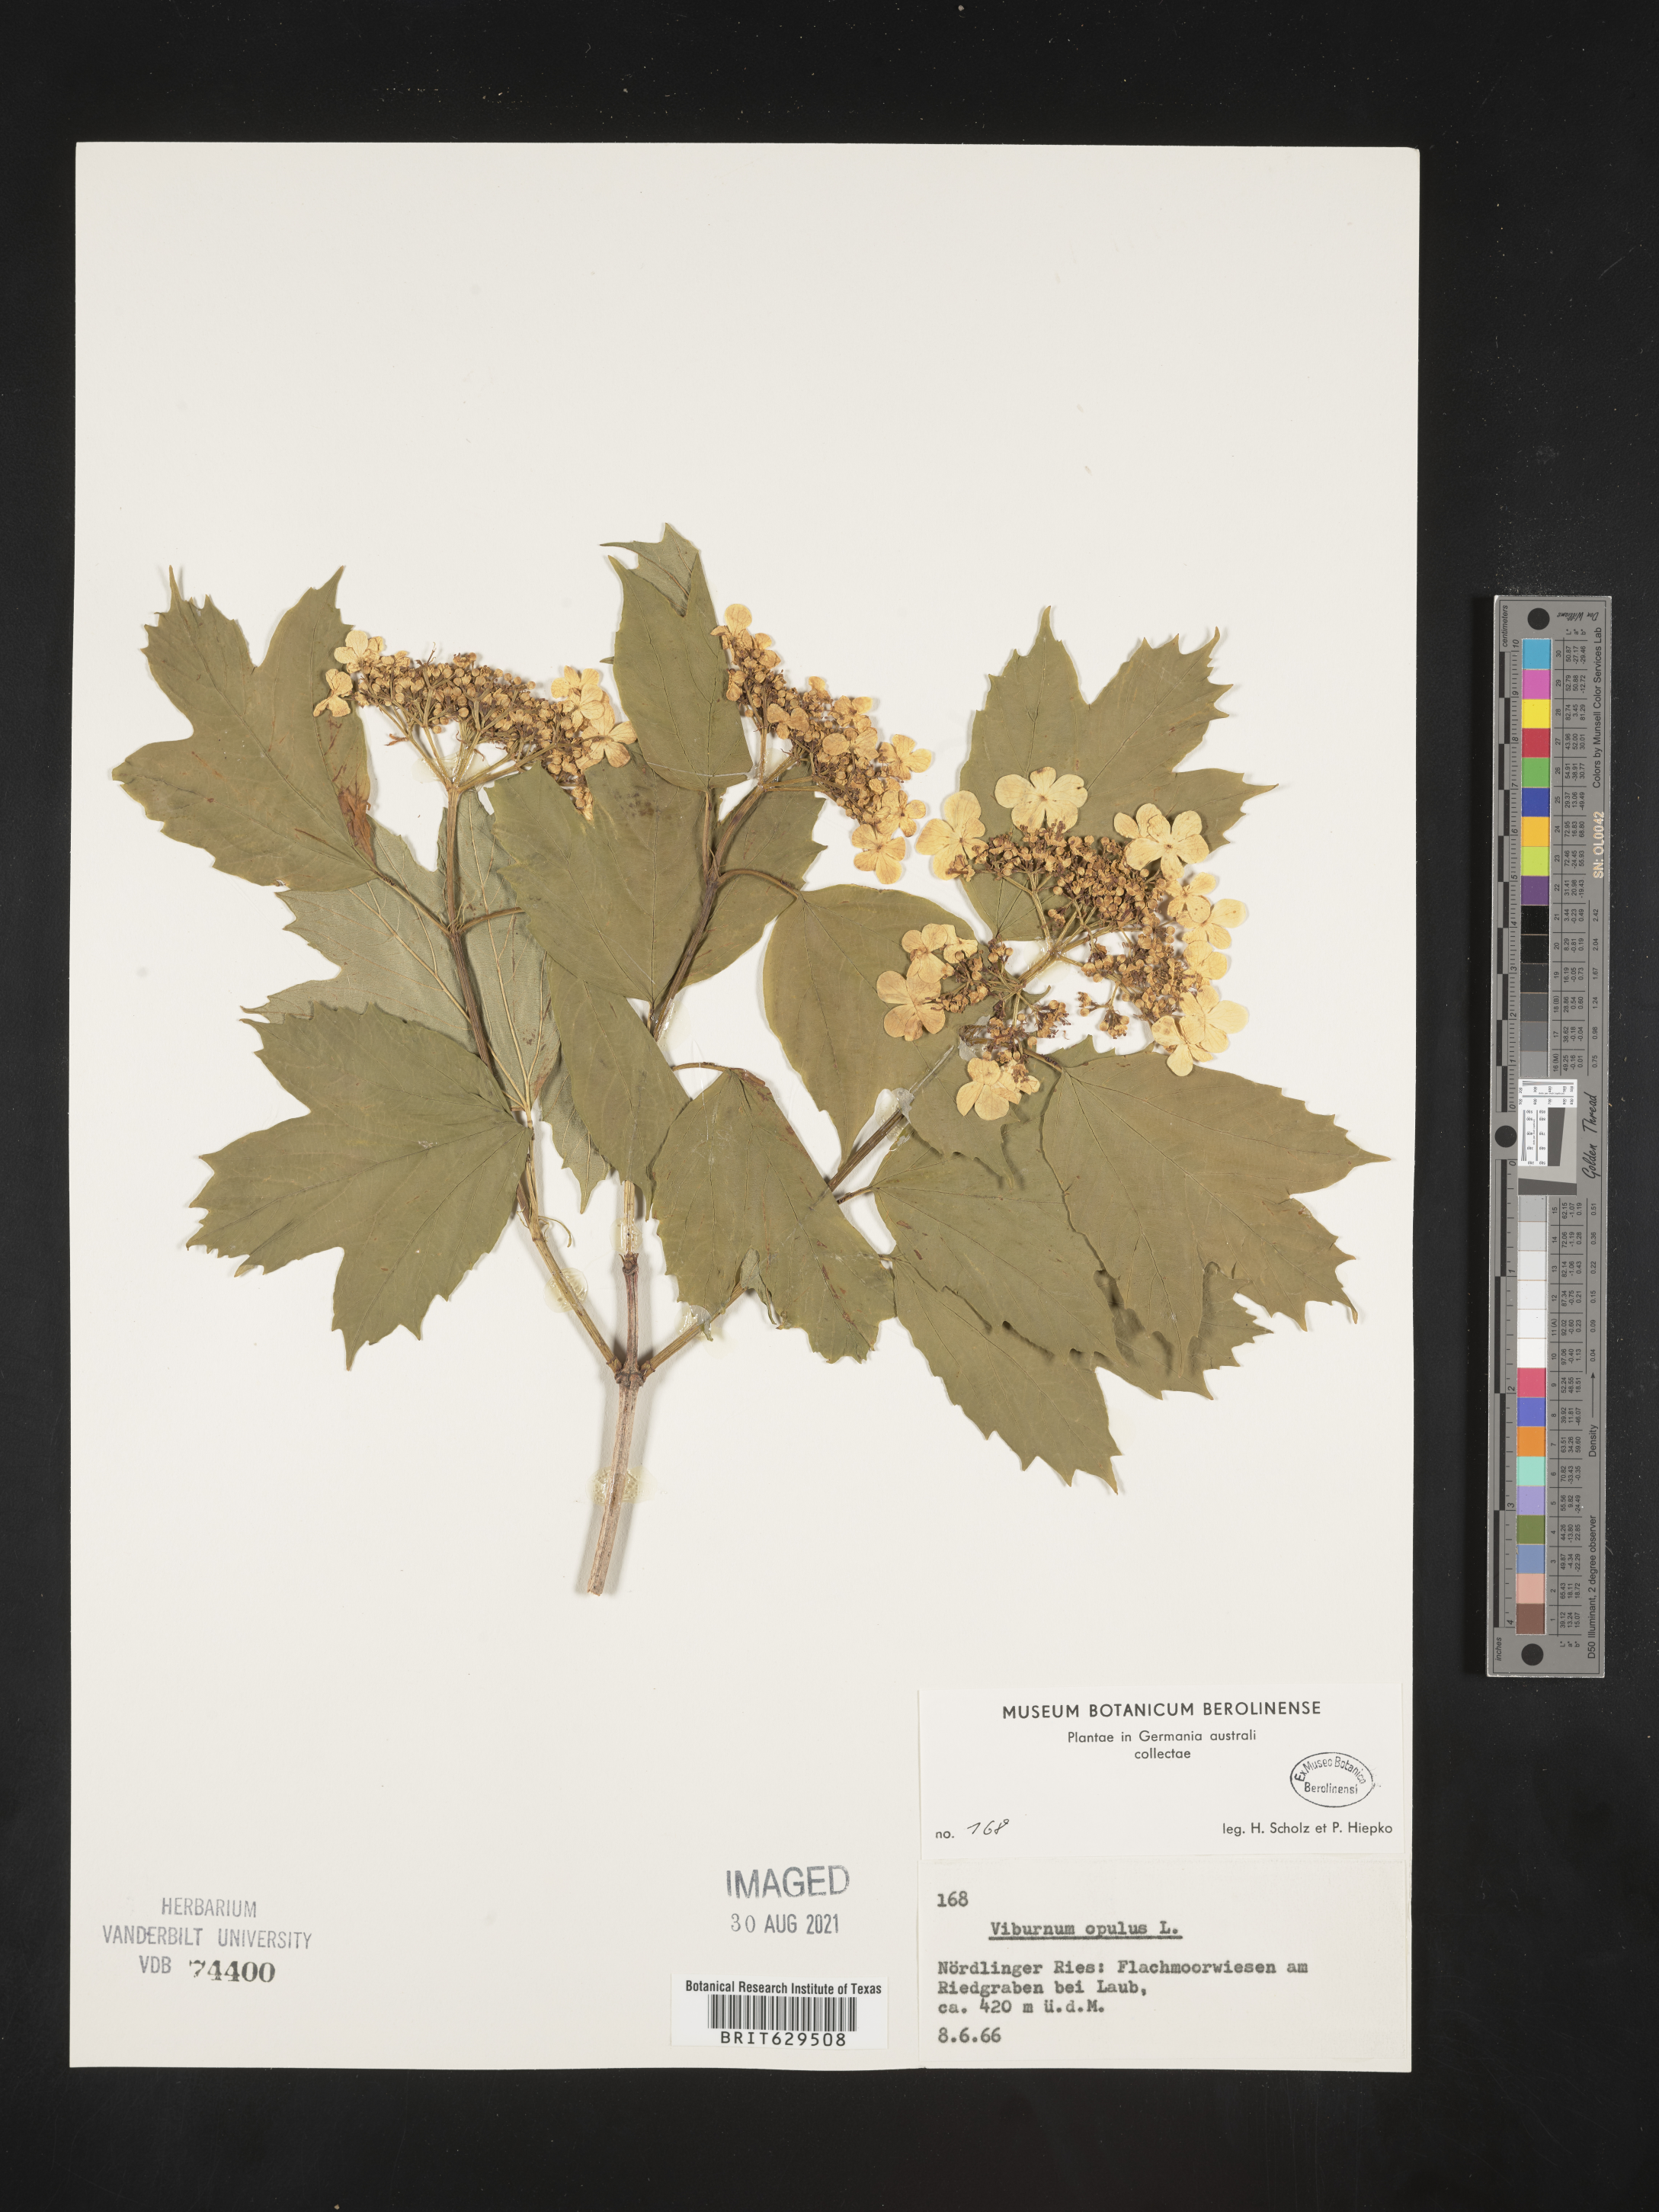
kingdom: Plantae
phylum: Tracheophyta
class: Magnoliopsida
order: Dipsacales
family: Viburnaceae
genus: Viburnum
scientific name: Viburnum opulus
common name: Guelder-rose
